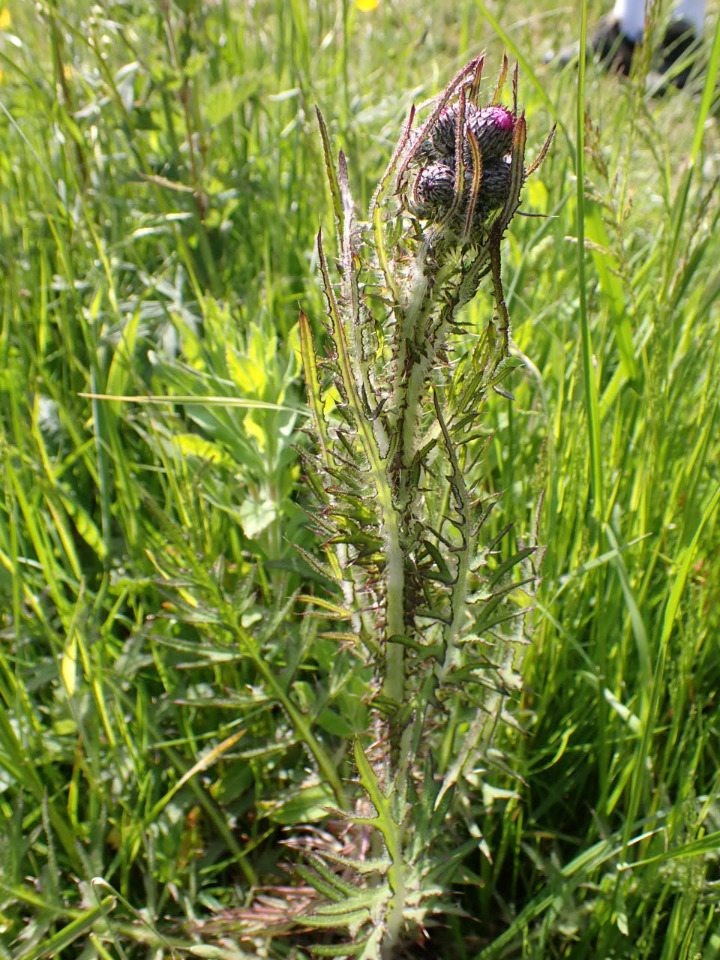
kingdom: Plantae
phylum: Tracheophyta
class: Magnoliopsida
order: Asterales
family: Asteraceae
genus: Cirsium
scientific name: Cirsium palustre
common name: Kær-tidsel
